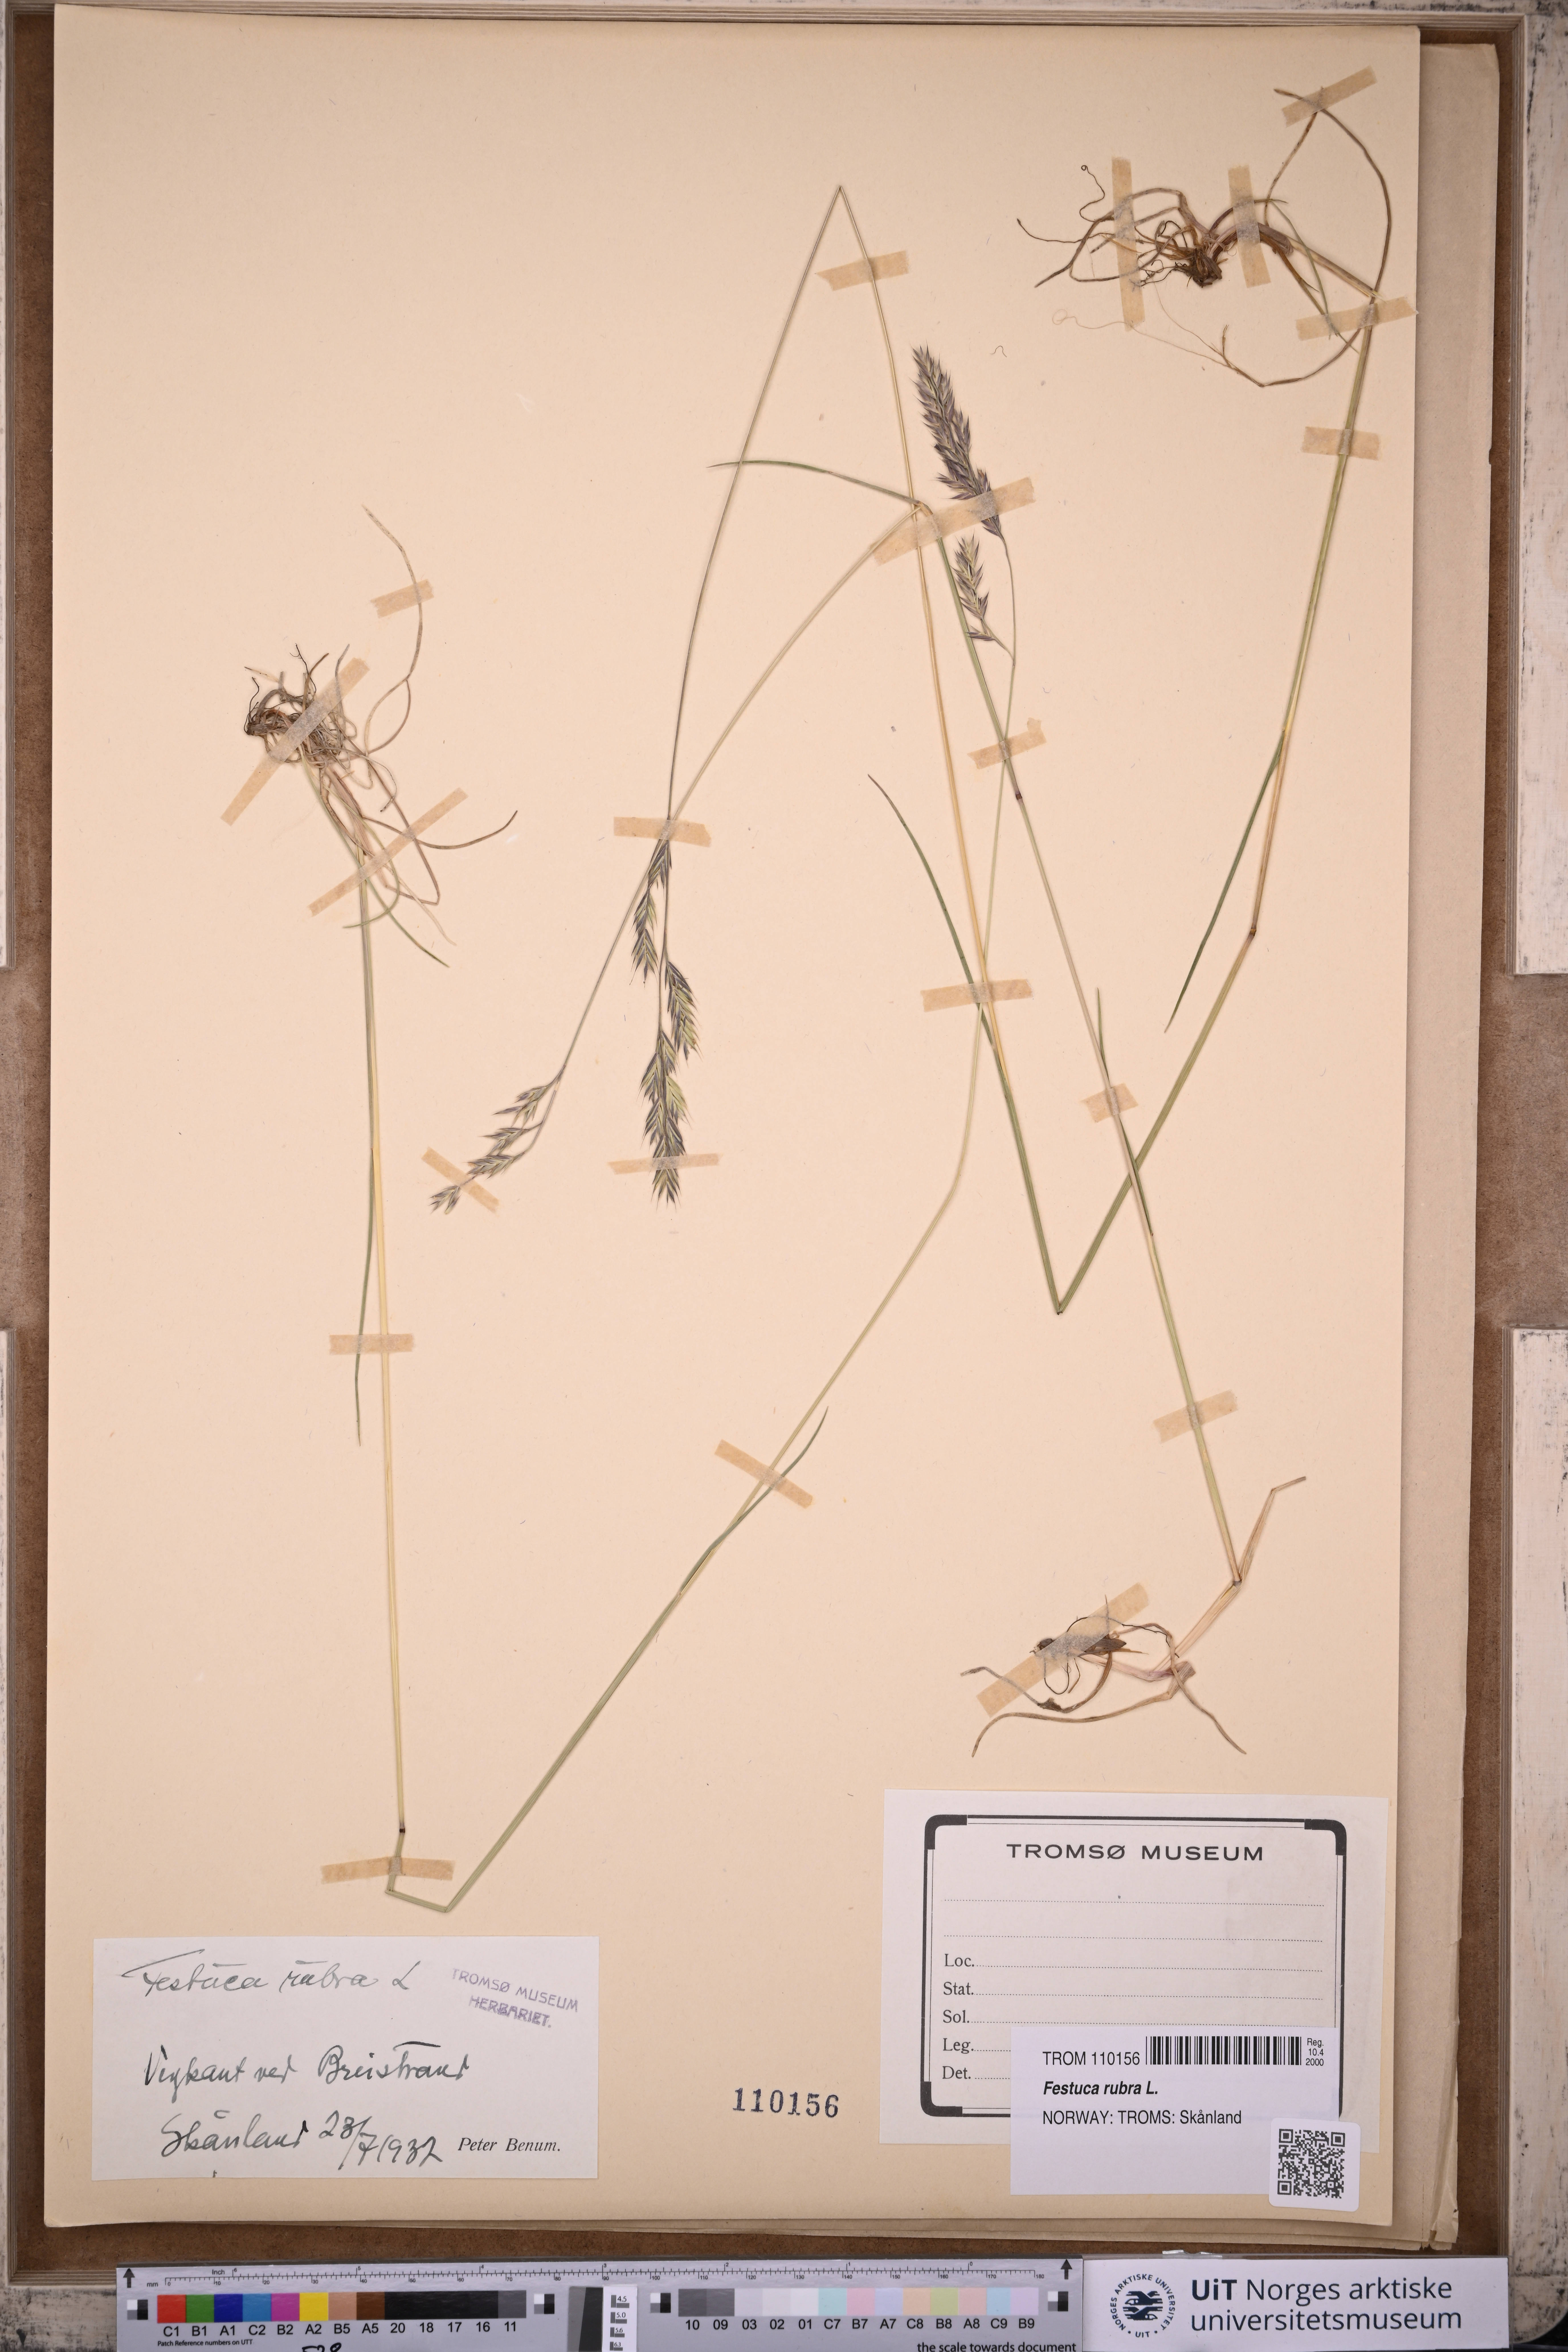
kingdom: Plantae
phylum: Tracheophyta
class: Liliopsida
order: Poales
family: Poaceae
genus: Festuca
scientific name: Festuca rubra
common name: Red fescue
